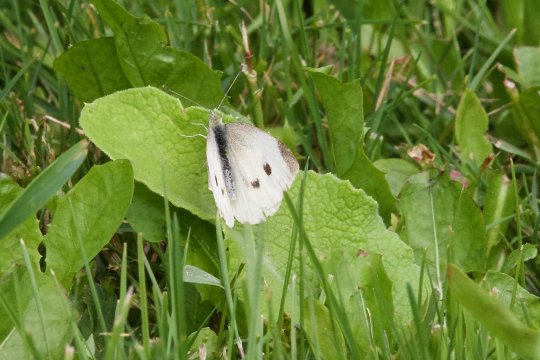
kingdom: Animalia
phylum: Arthropoda
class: Insecta
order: Lepidoptera
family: Pieridae
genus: Pieris
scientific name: Pieris rapae
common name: Cabbage White
